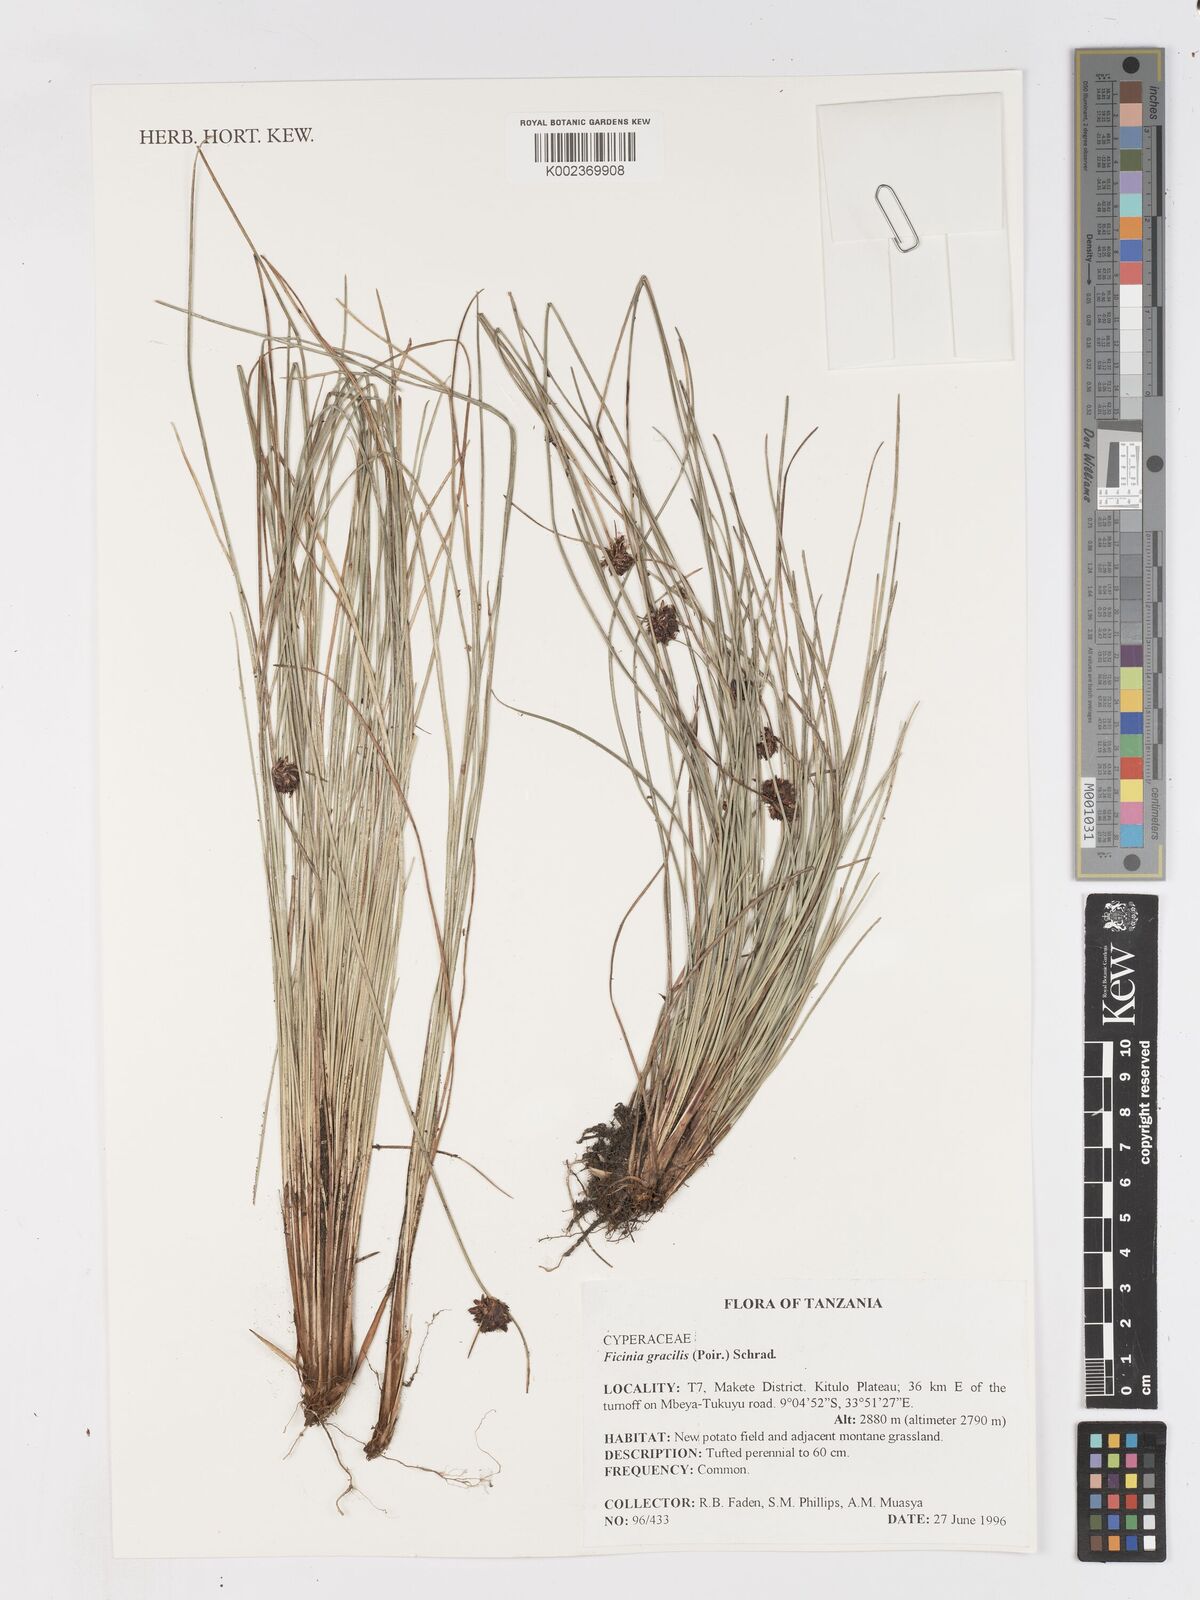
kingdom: Plantae
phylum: Tracheophyta
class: Liliopsida
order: Poales
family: Cyperaceae
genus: Ficinia
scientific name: Ficinia gracilis
